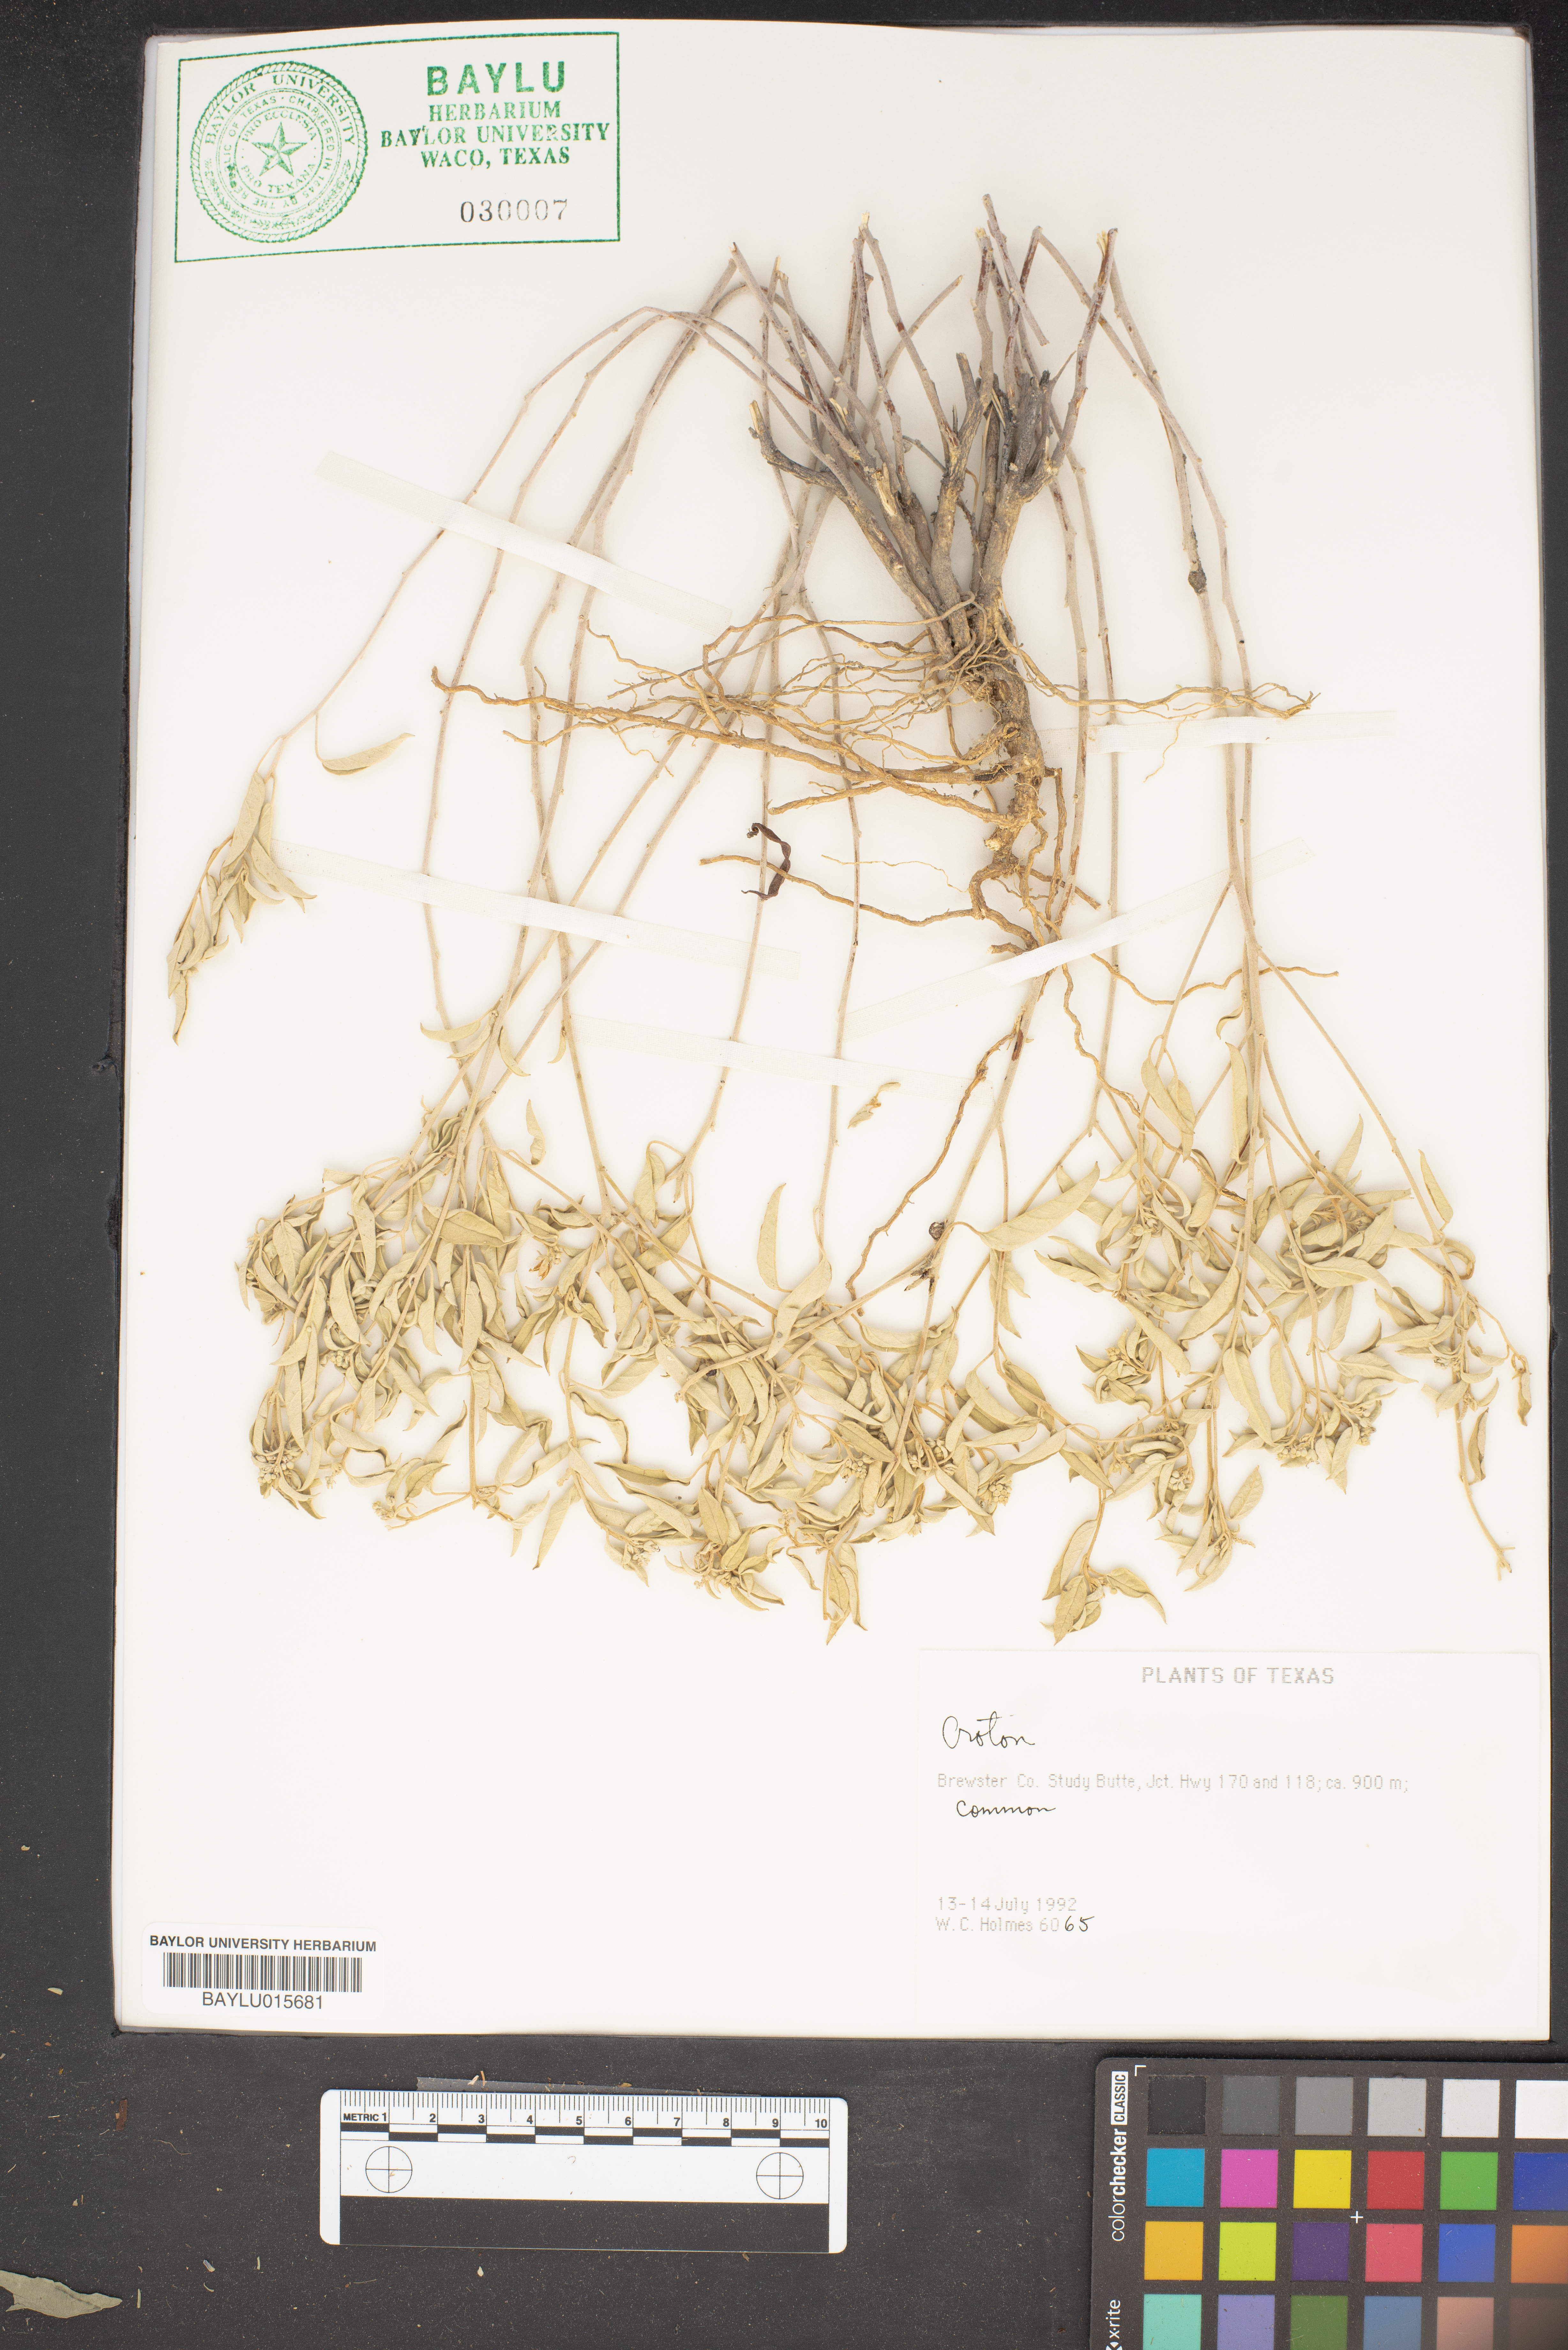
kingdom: Plantae
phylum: Tracheophyta
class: Magnoliopsida
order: Malpighiales
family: Euphorbiaceae
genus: Croton
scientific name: Croton
